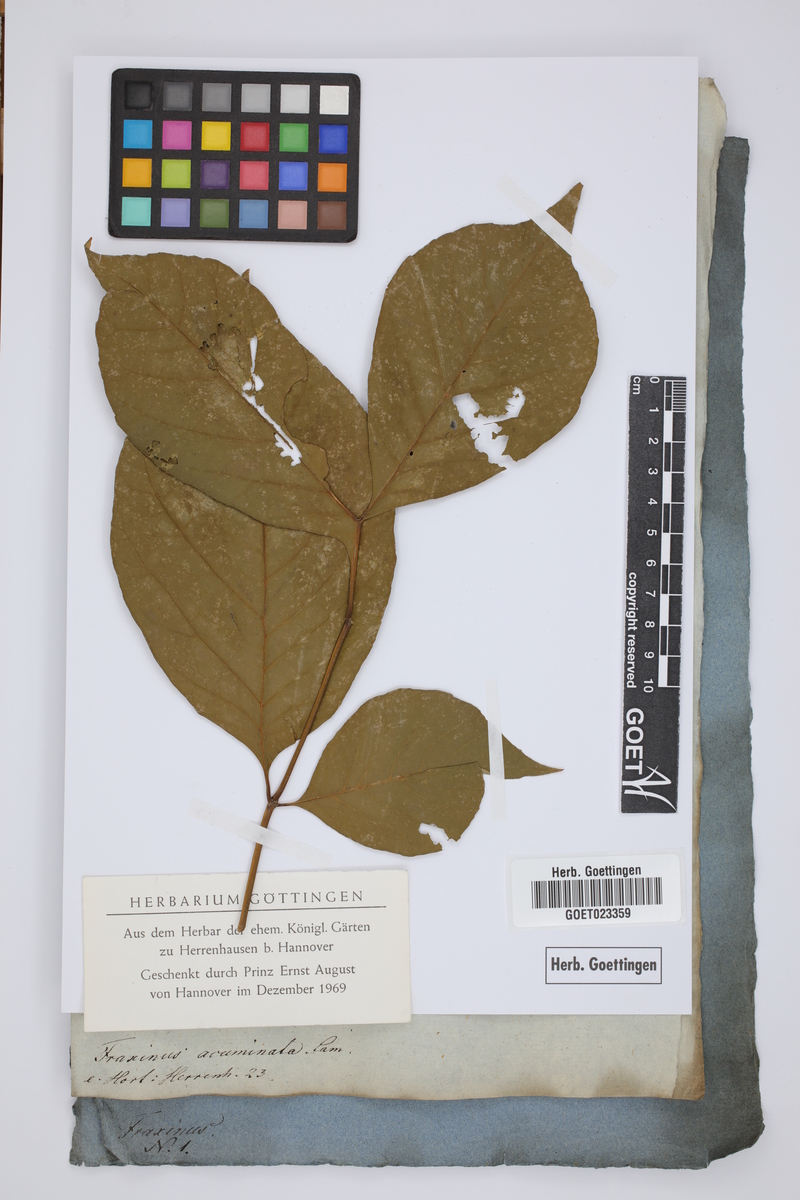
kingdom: Plantae
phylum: Tracheophyta
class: Magnoliopsida
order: Lamiales
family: Oleaceae
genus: Fraxinus
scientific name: Fraxinus americana
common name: White ash
